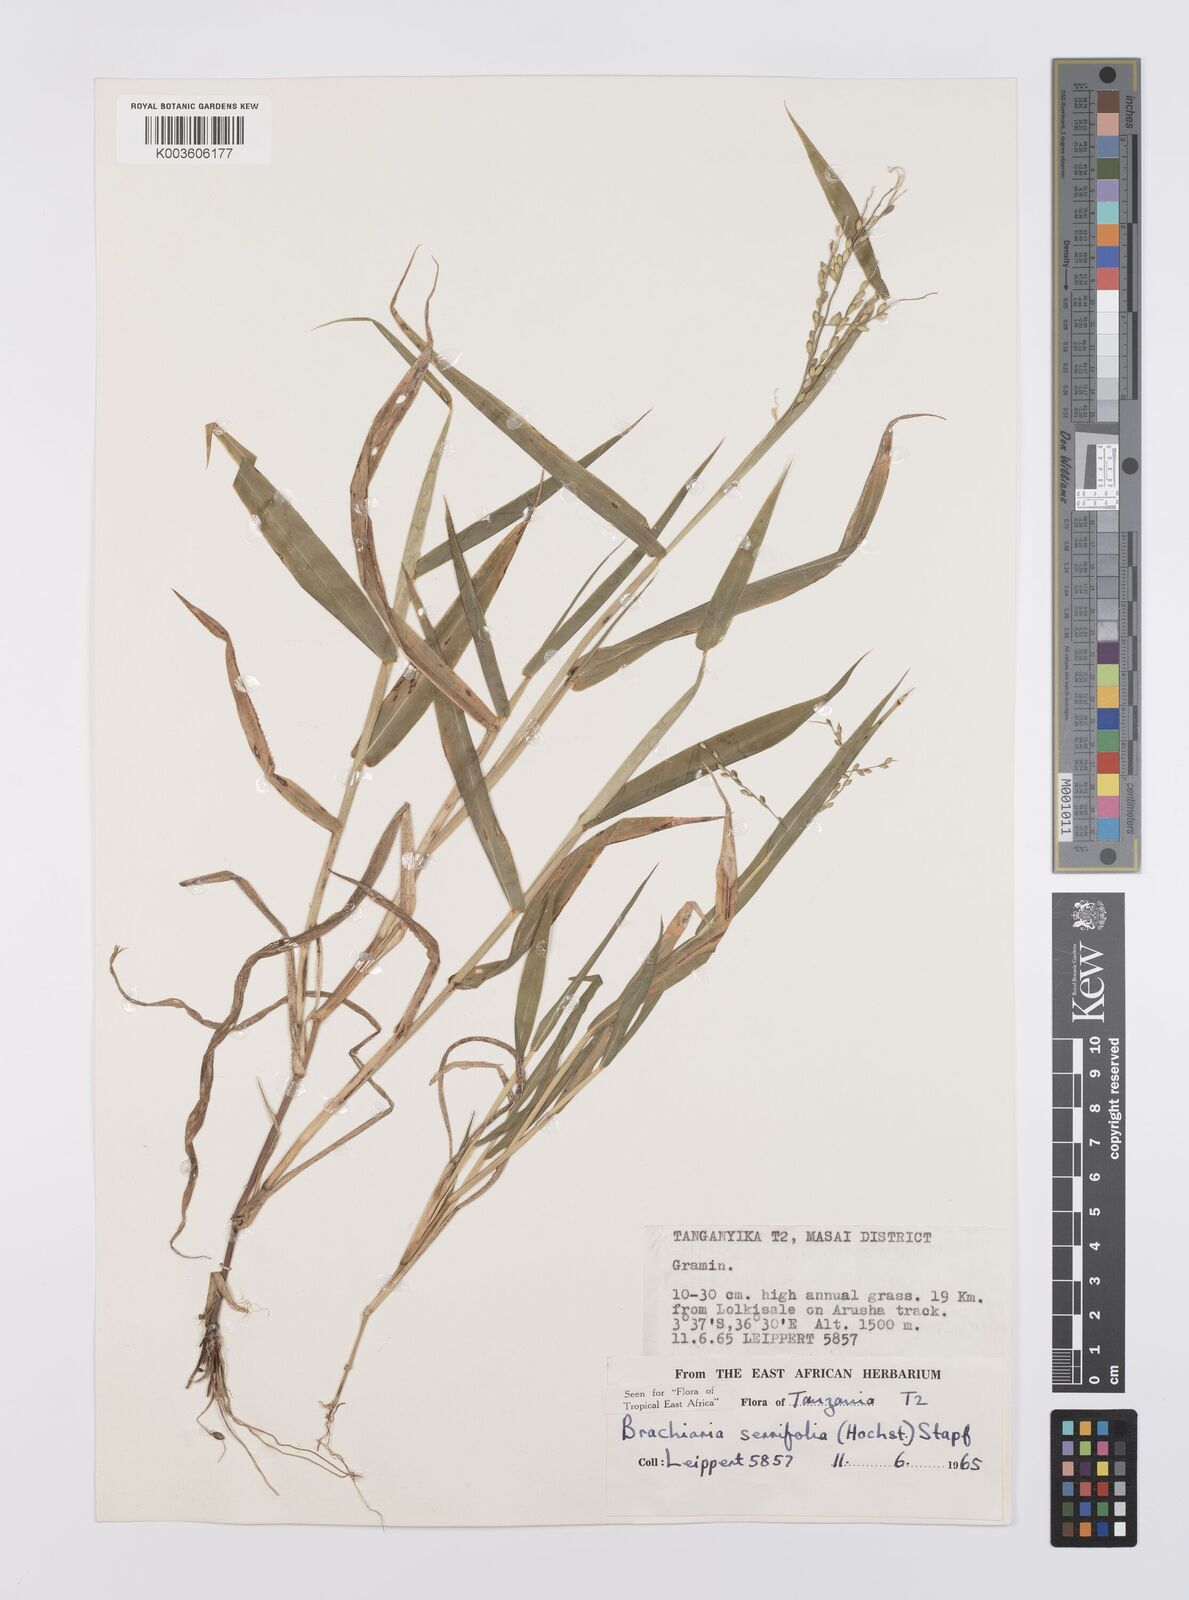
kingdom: Plantae
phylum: Tracheophyta
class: Liliopsida
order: Poales
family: Poaceae
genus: Urochloa
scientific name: Urochloa serrifolia
